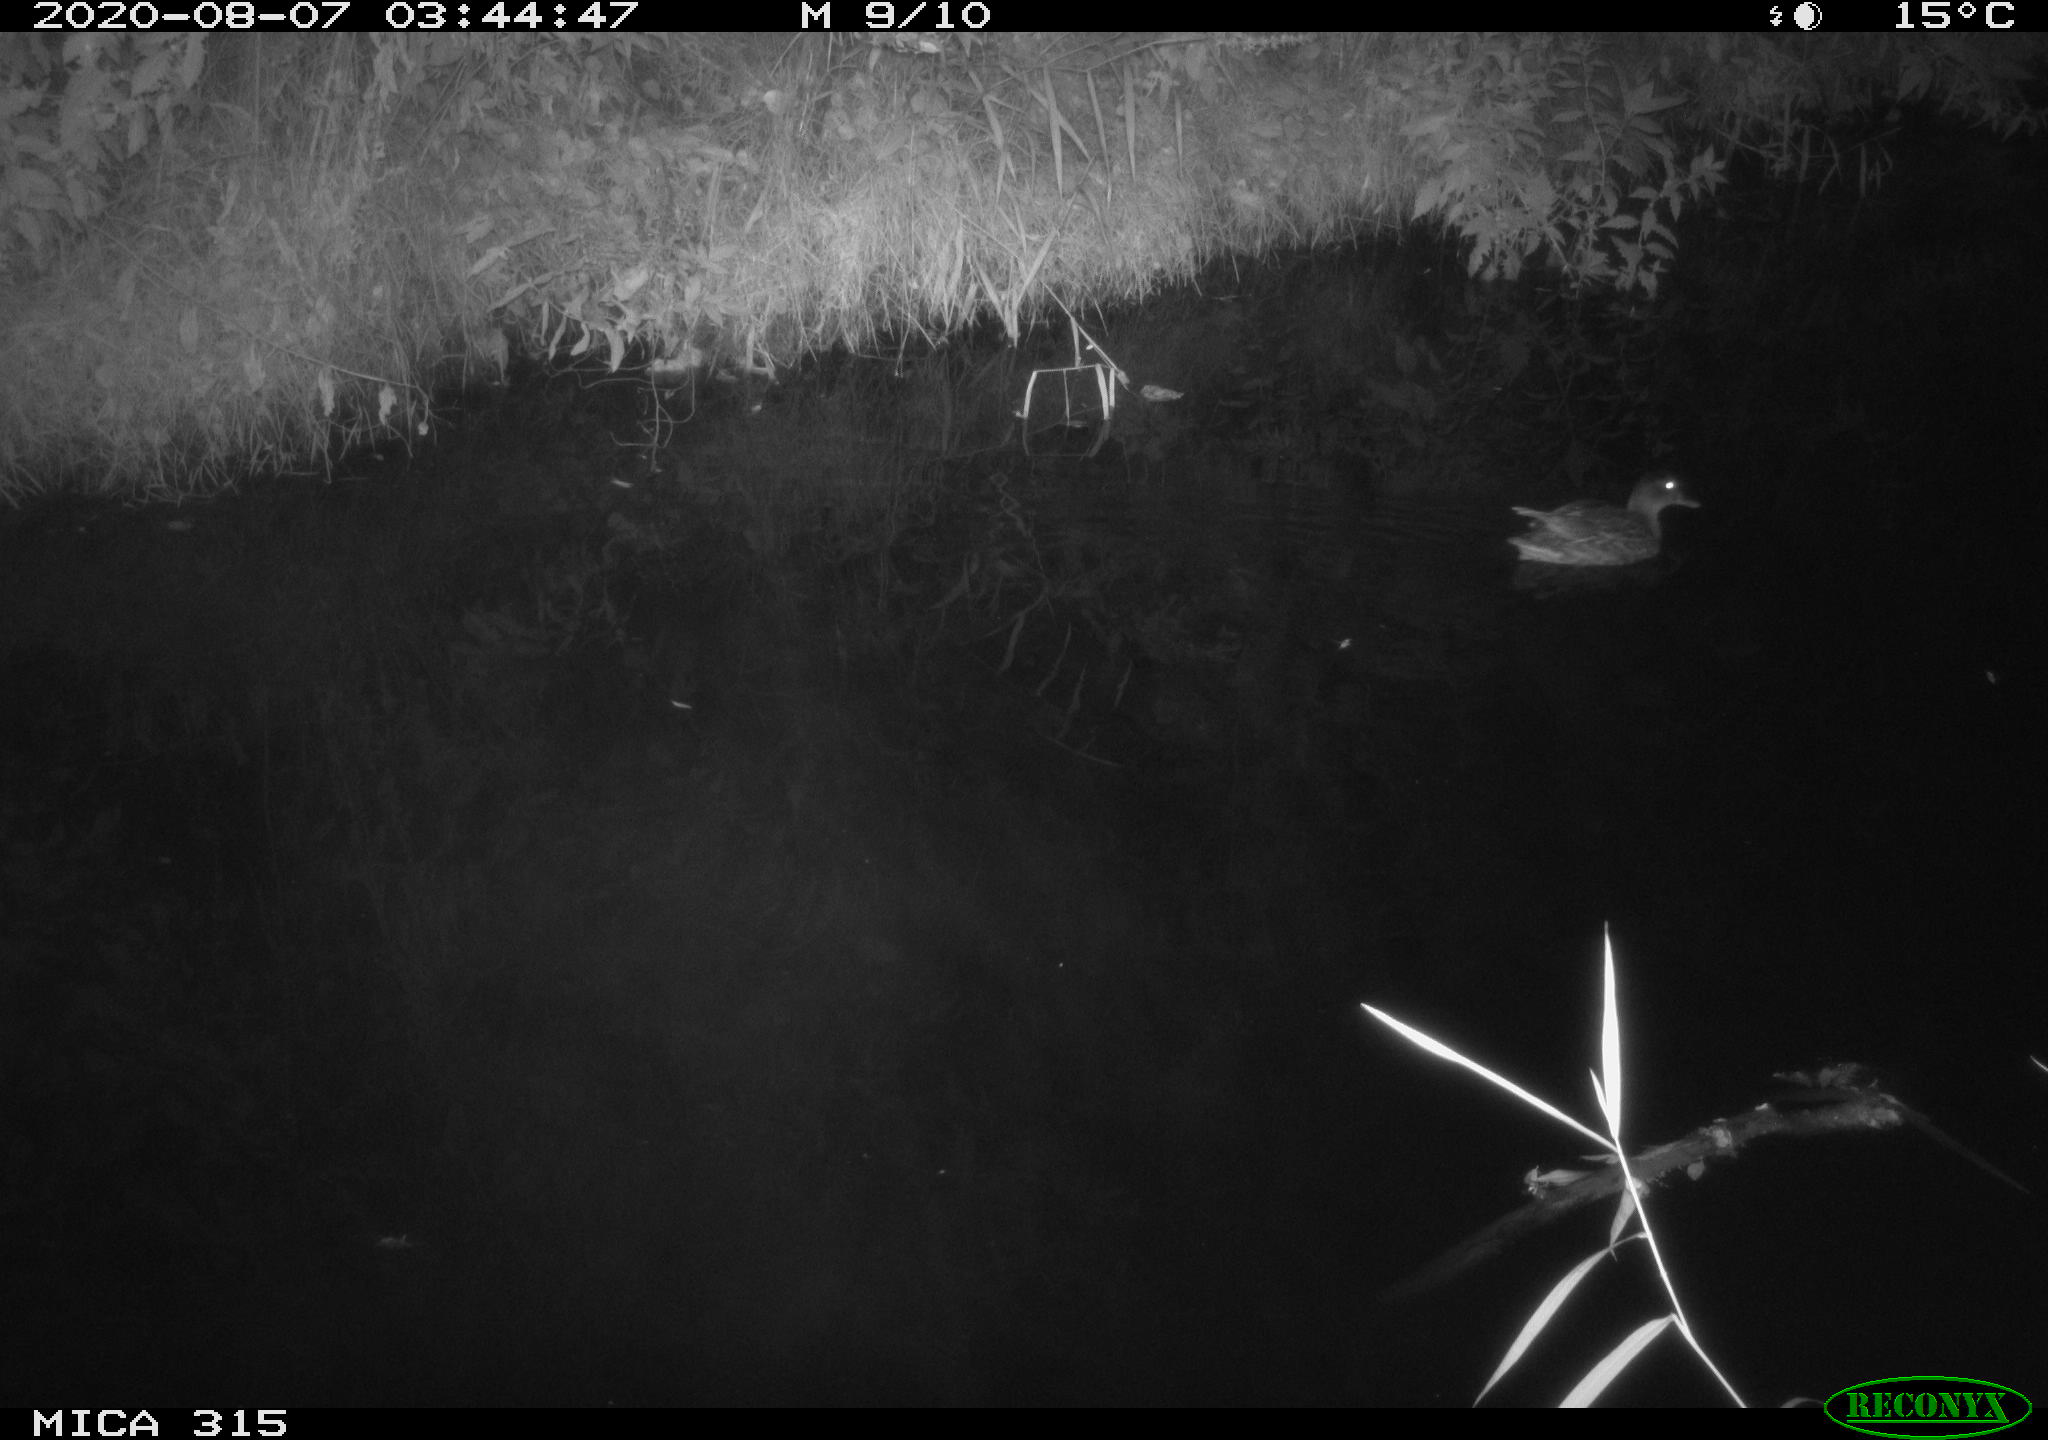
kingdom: Animalia
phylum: Chordata
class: Aves
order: Anseriformes
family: Anatidae
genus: Anas
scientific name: Anas platyrhynchos
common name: Mallard
